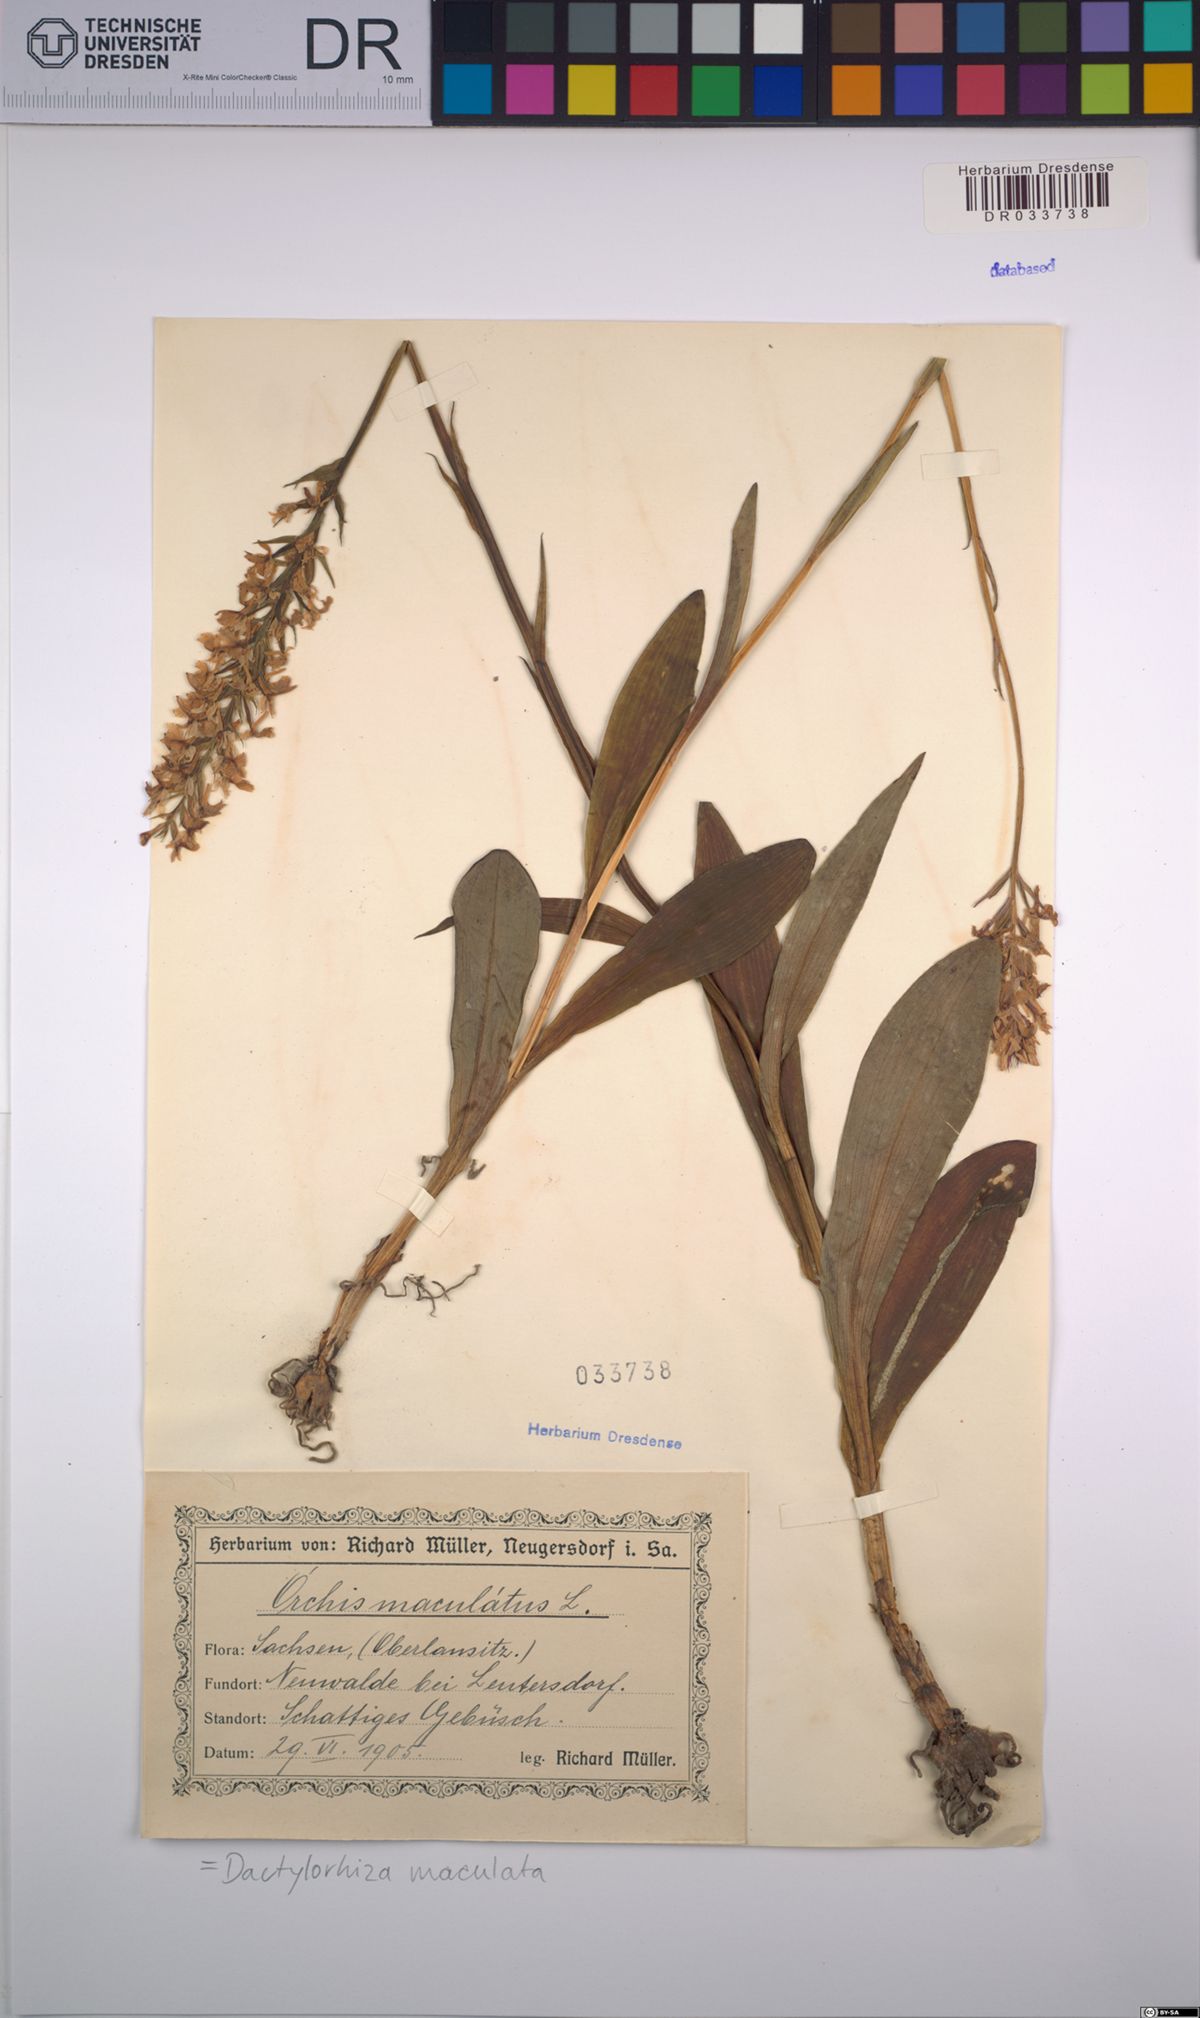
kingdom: Plantae
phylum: Tracheophyta
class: Liliopsida
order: Asparagales
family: Orchidaceae
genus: Dactylorhiza
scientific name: Dactylorhiza maculata
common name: Heath spotted-orchid
